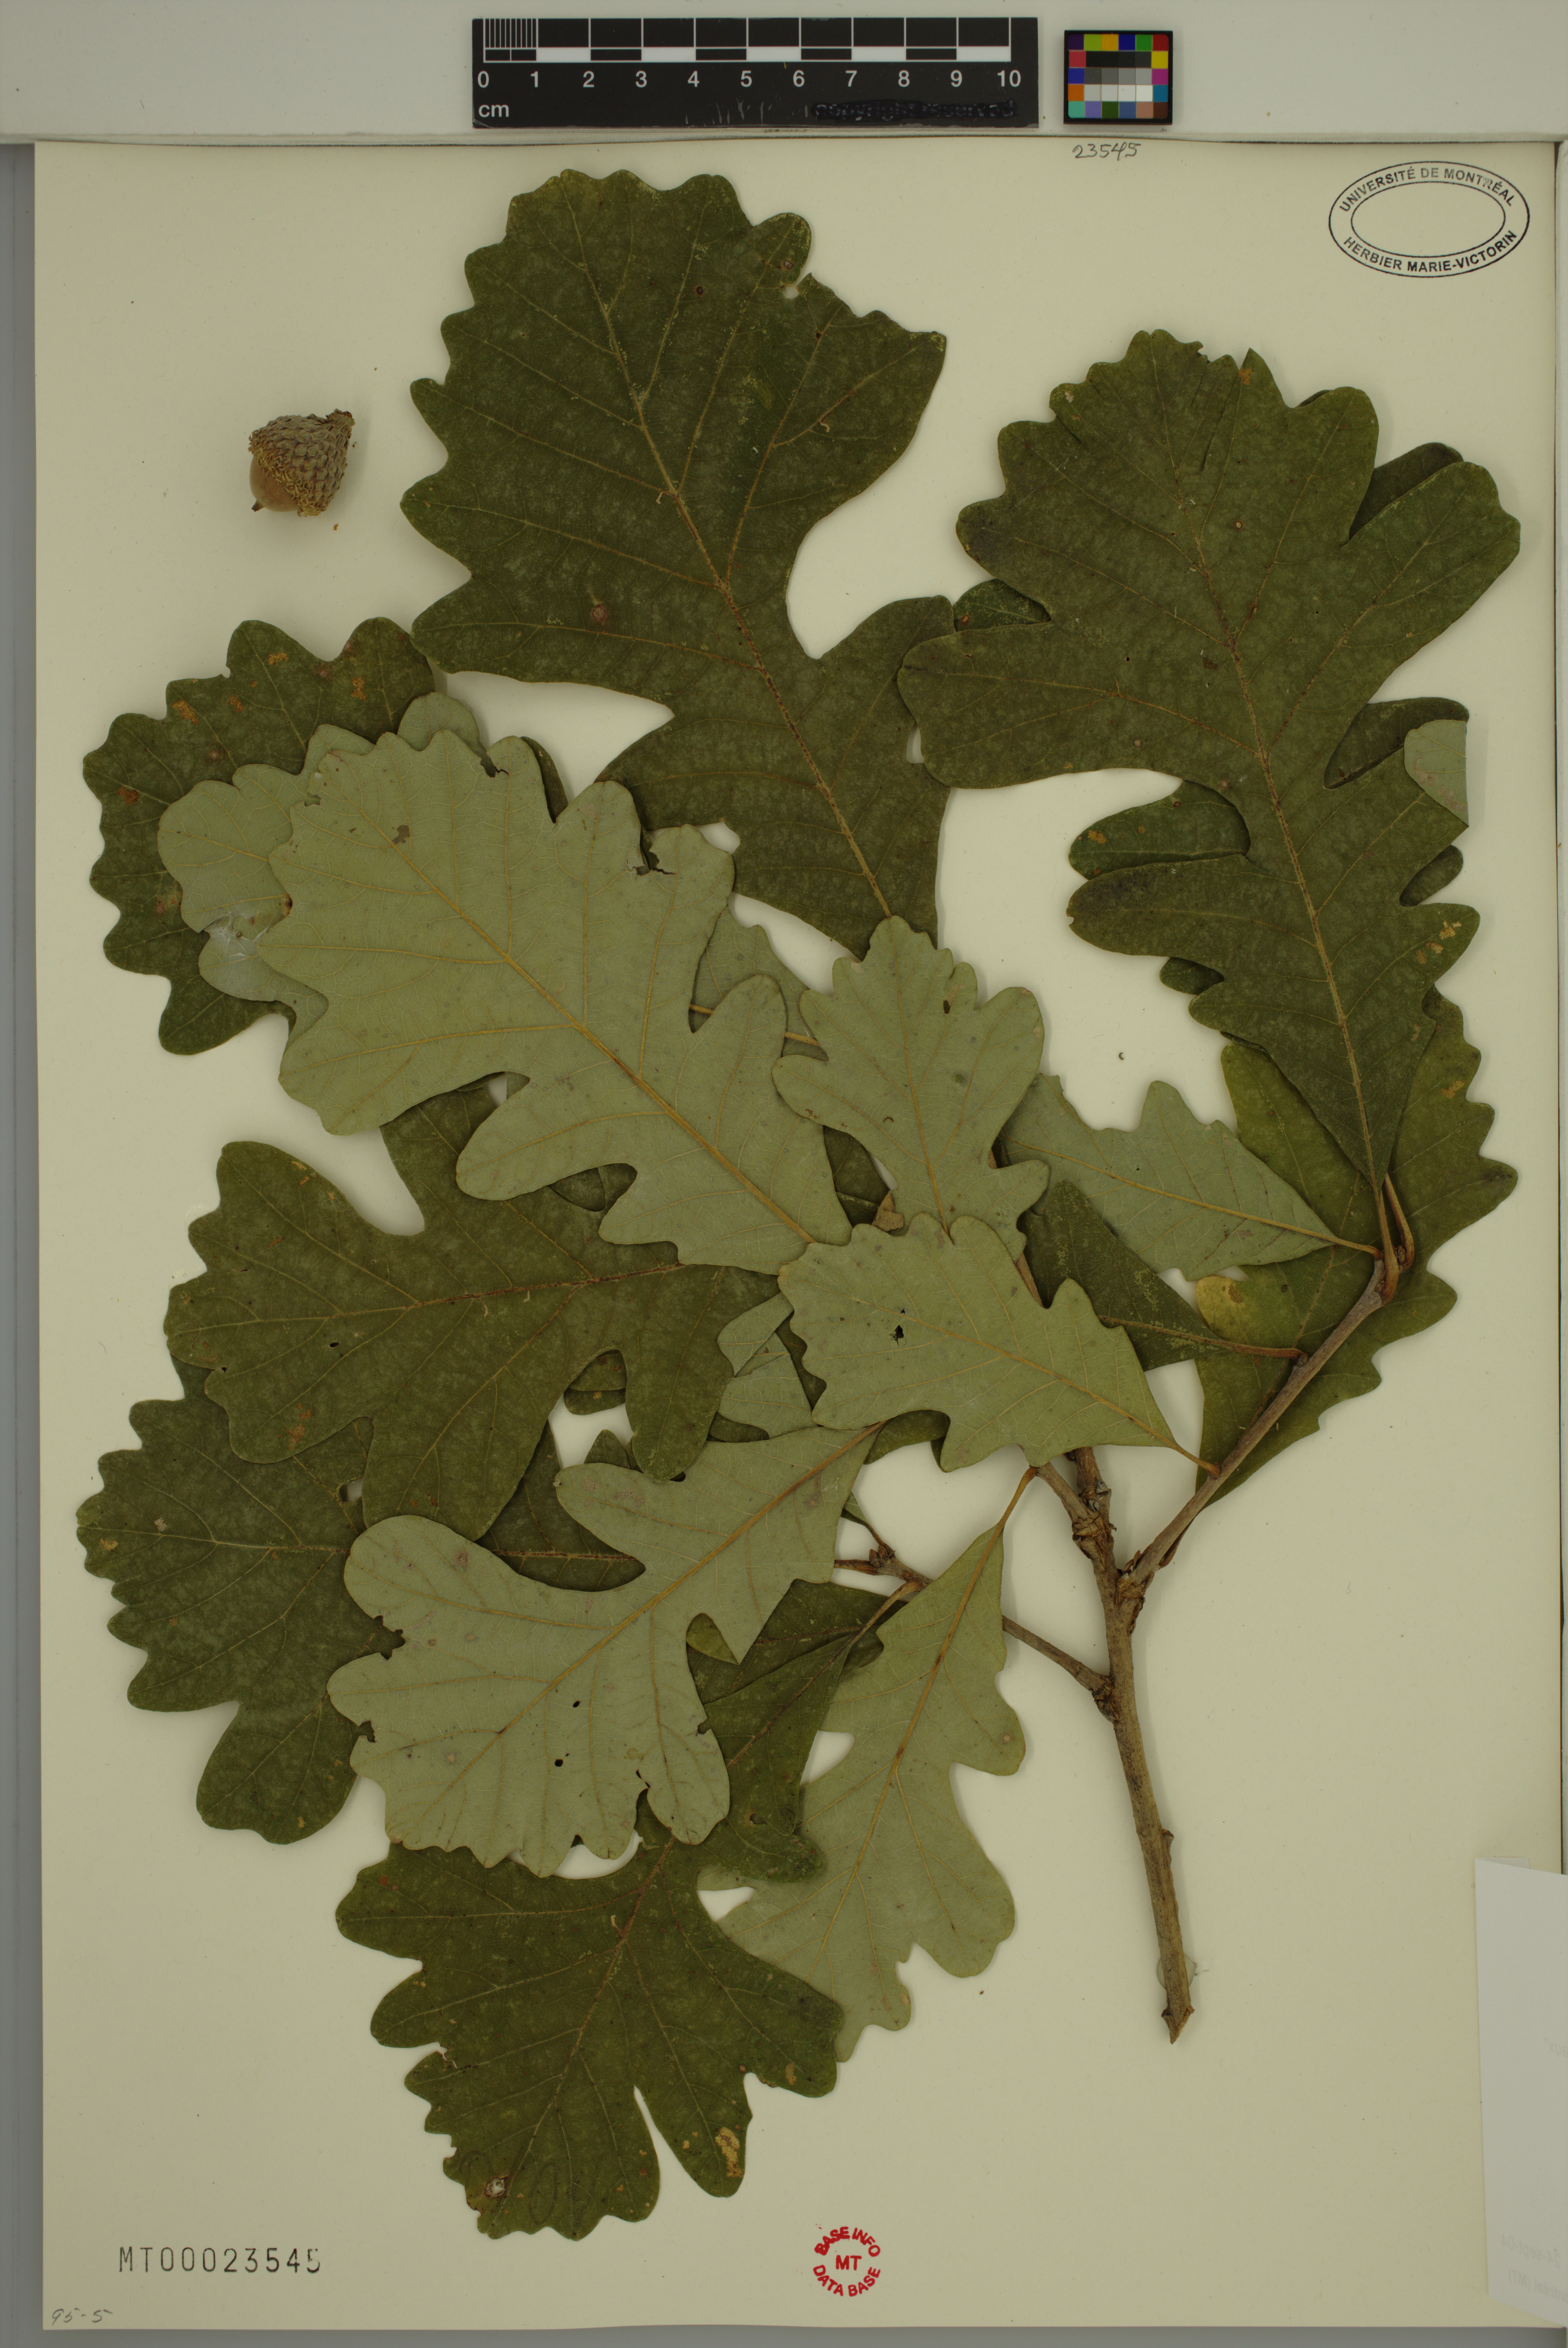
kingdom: Plantae
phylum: Tracheophyta
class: Magnoliopsida
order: Fagales
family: Fagaceae
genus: Quercus
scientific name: Quercus macrocarpa
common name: Bur oak
